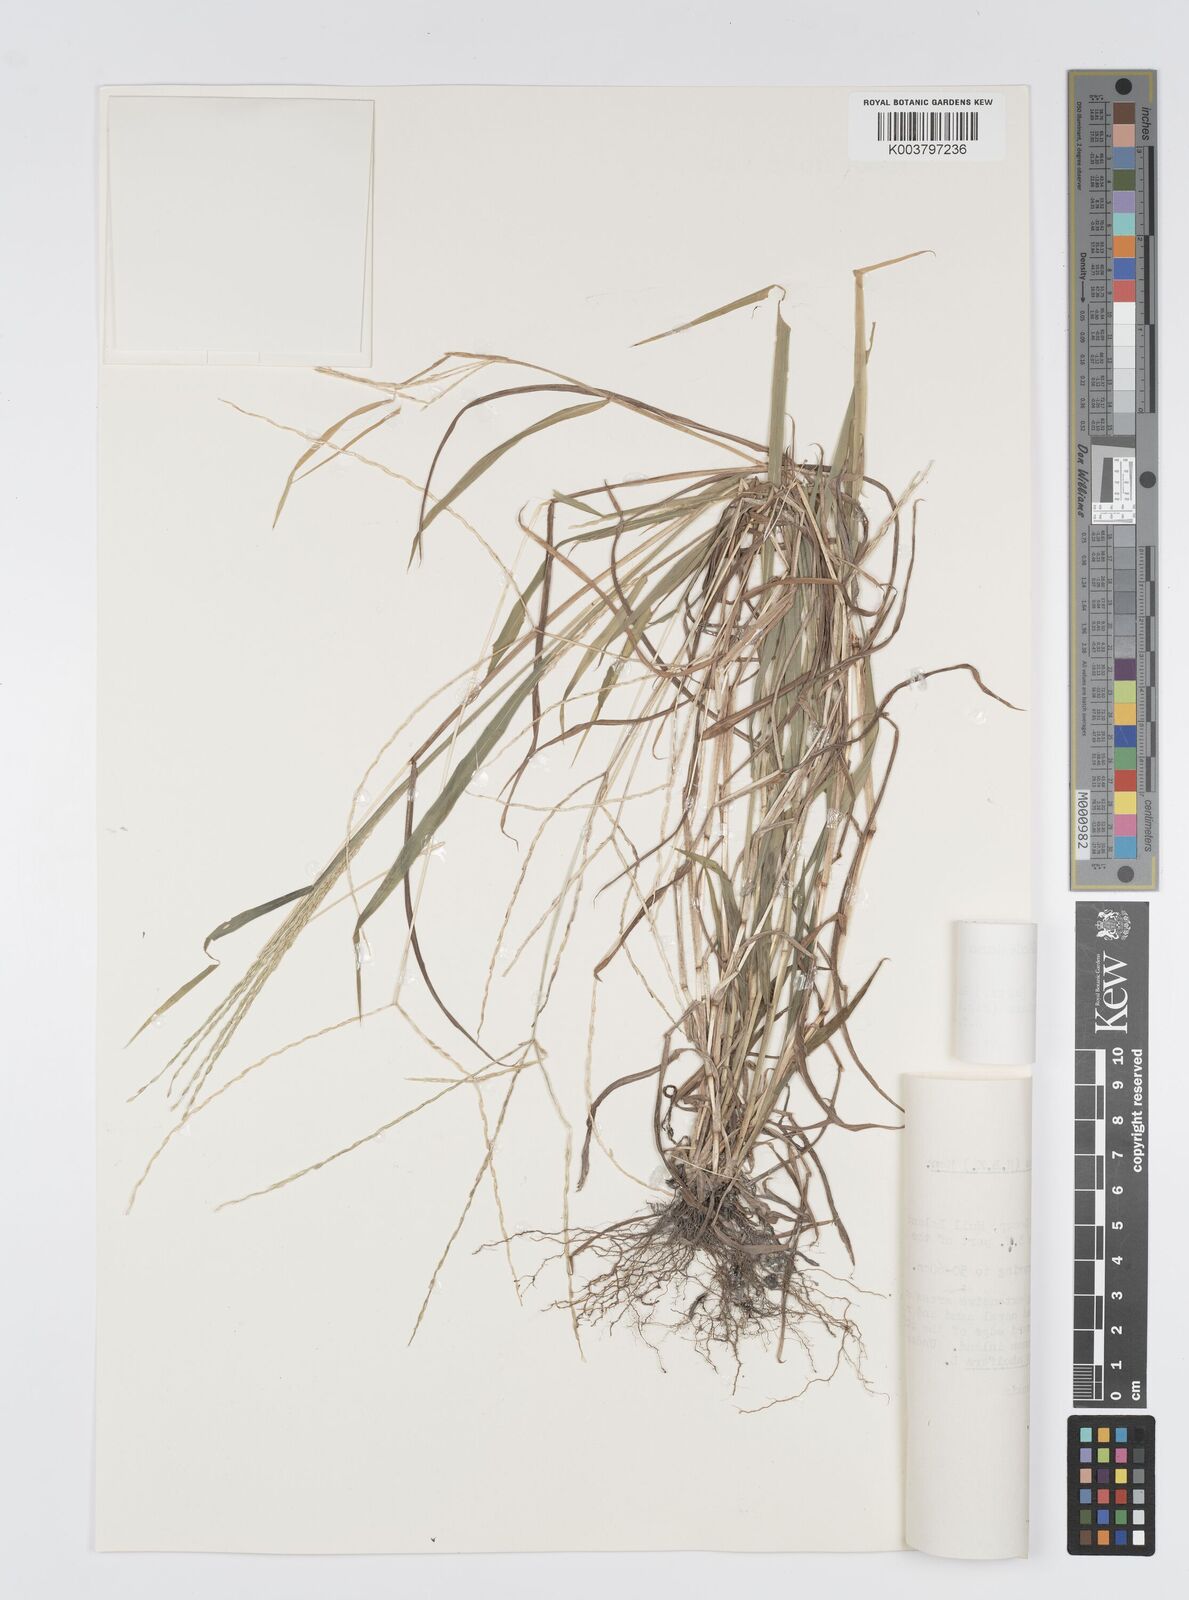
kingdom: Plantae
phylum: Tracheophyta
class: Liliopsida
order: Poales
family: Poaceae
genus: Digitaria
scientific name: Digitaria ciliaris
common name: Tropical finger-grass
